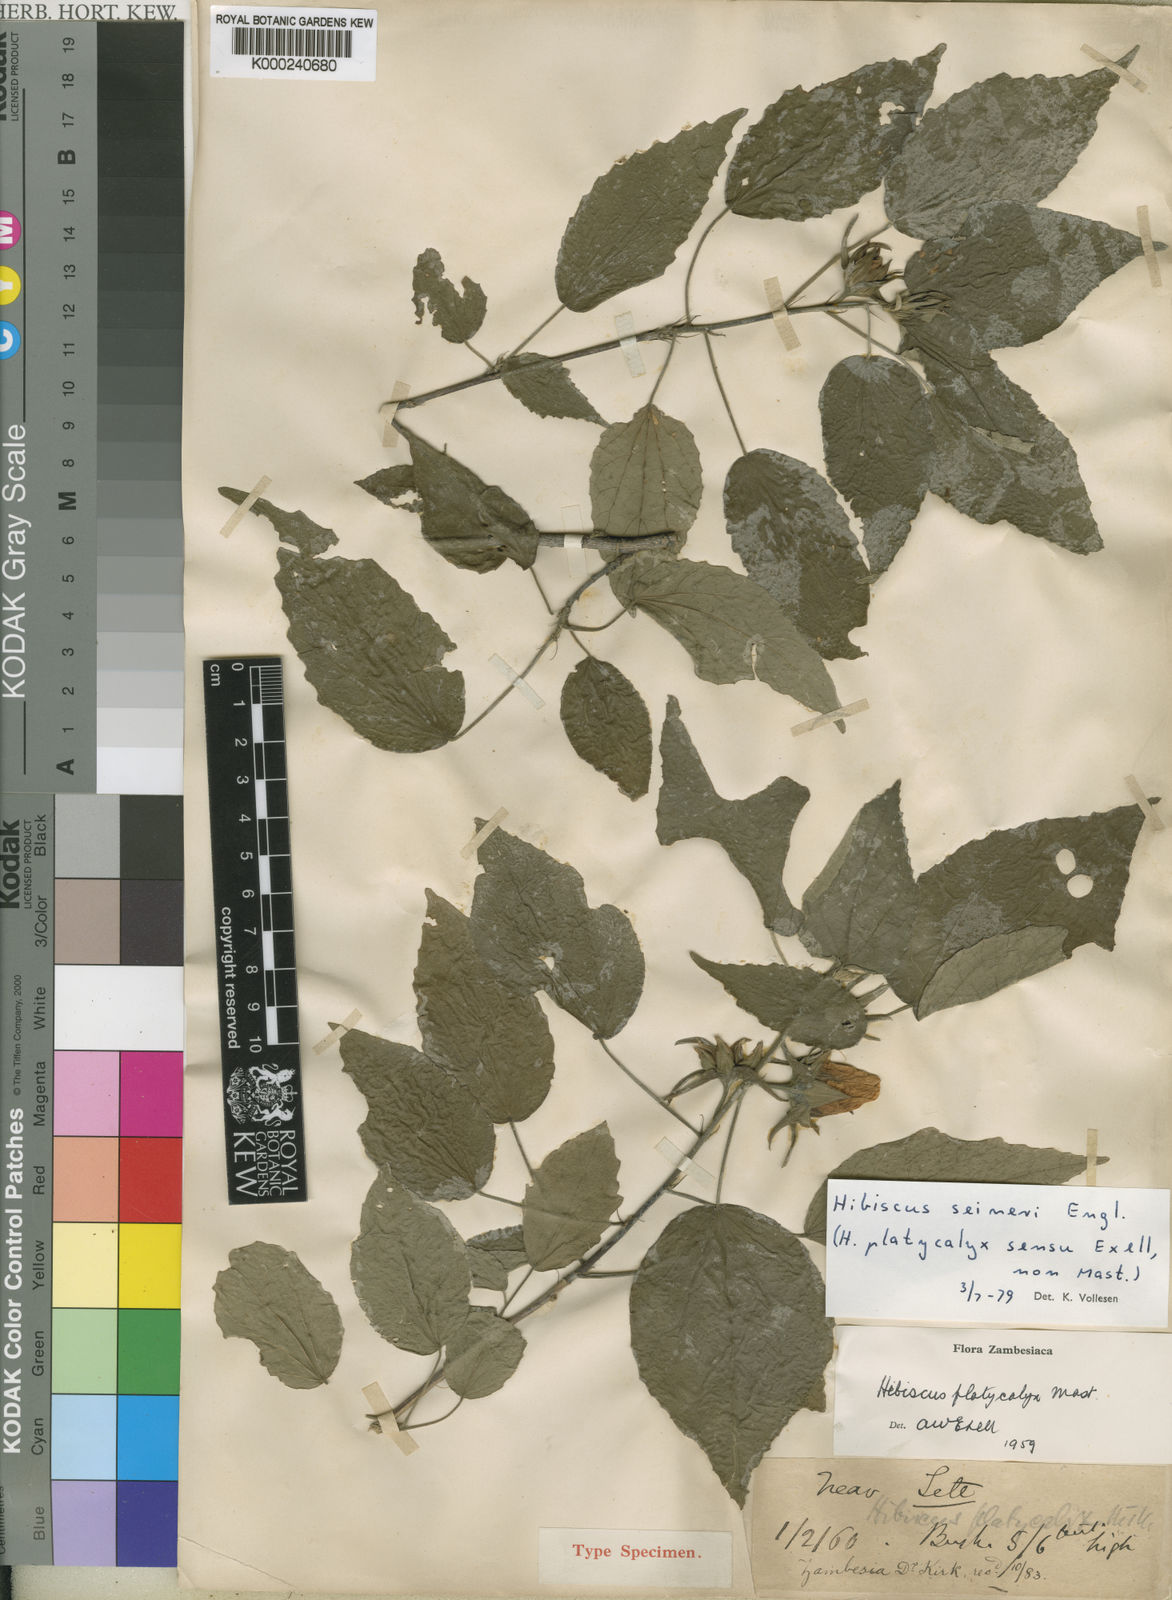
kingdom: Plantae
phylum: Tracheophyta
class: Magnoliopsida
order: Malvales
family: Malvaceae
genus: Hibiscus
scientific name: Hibiscus
